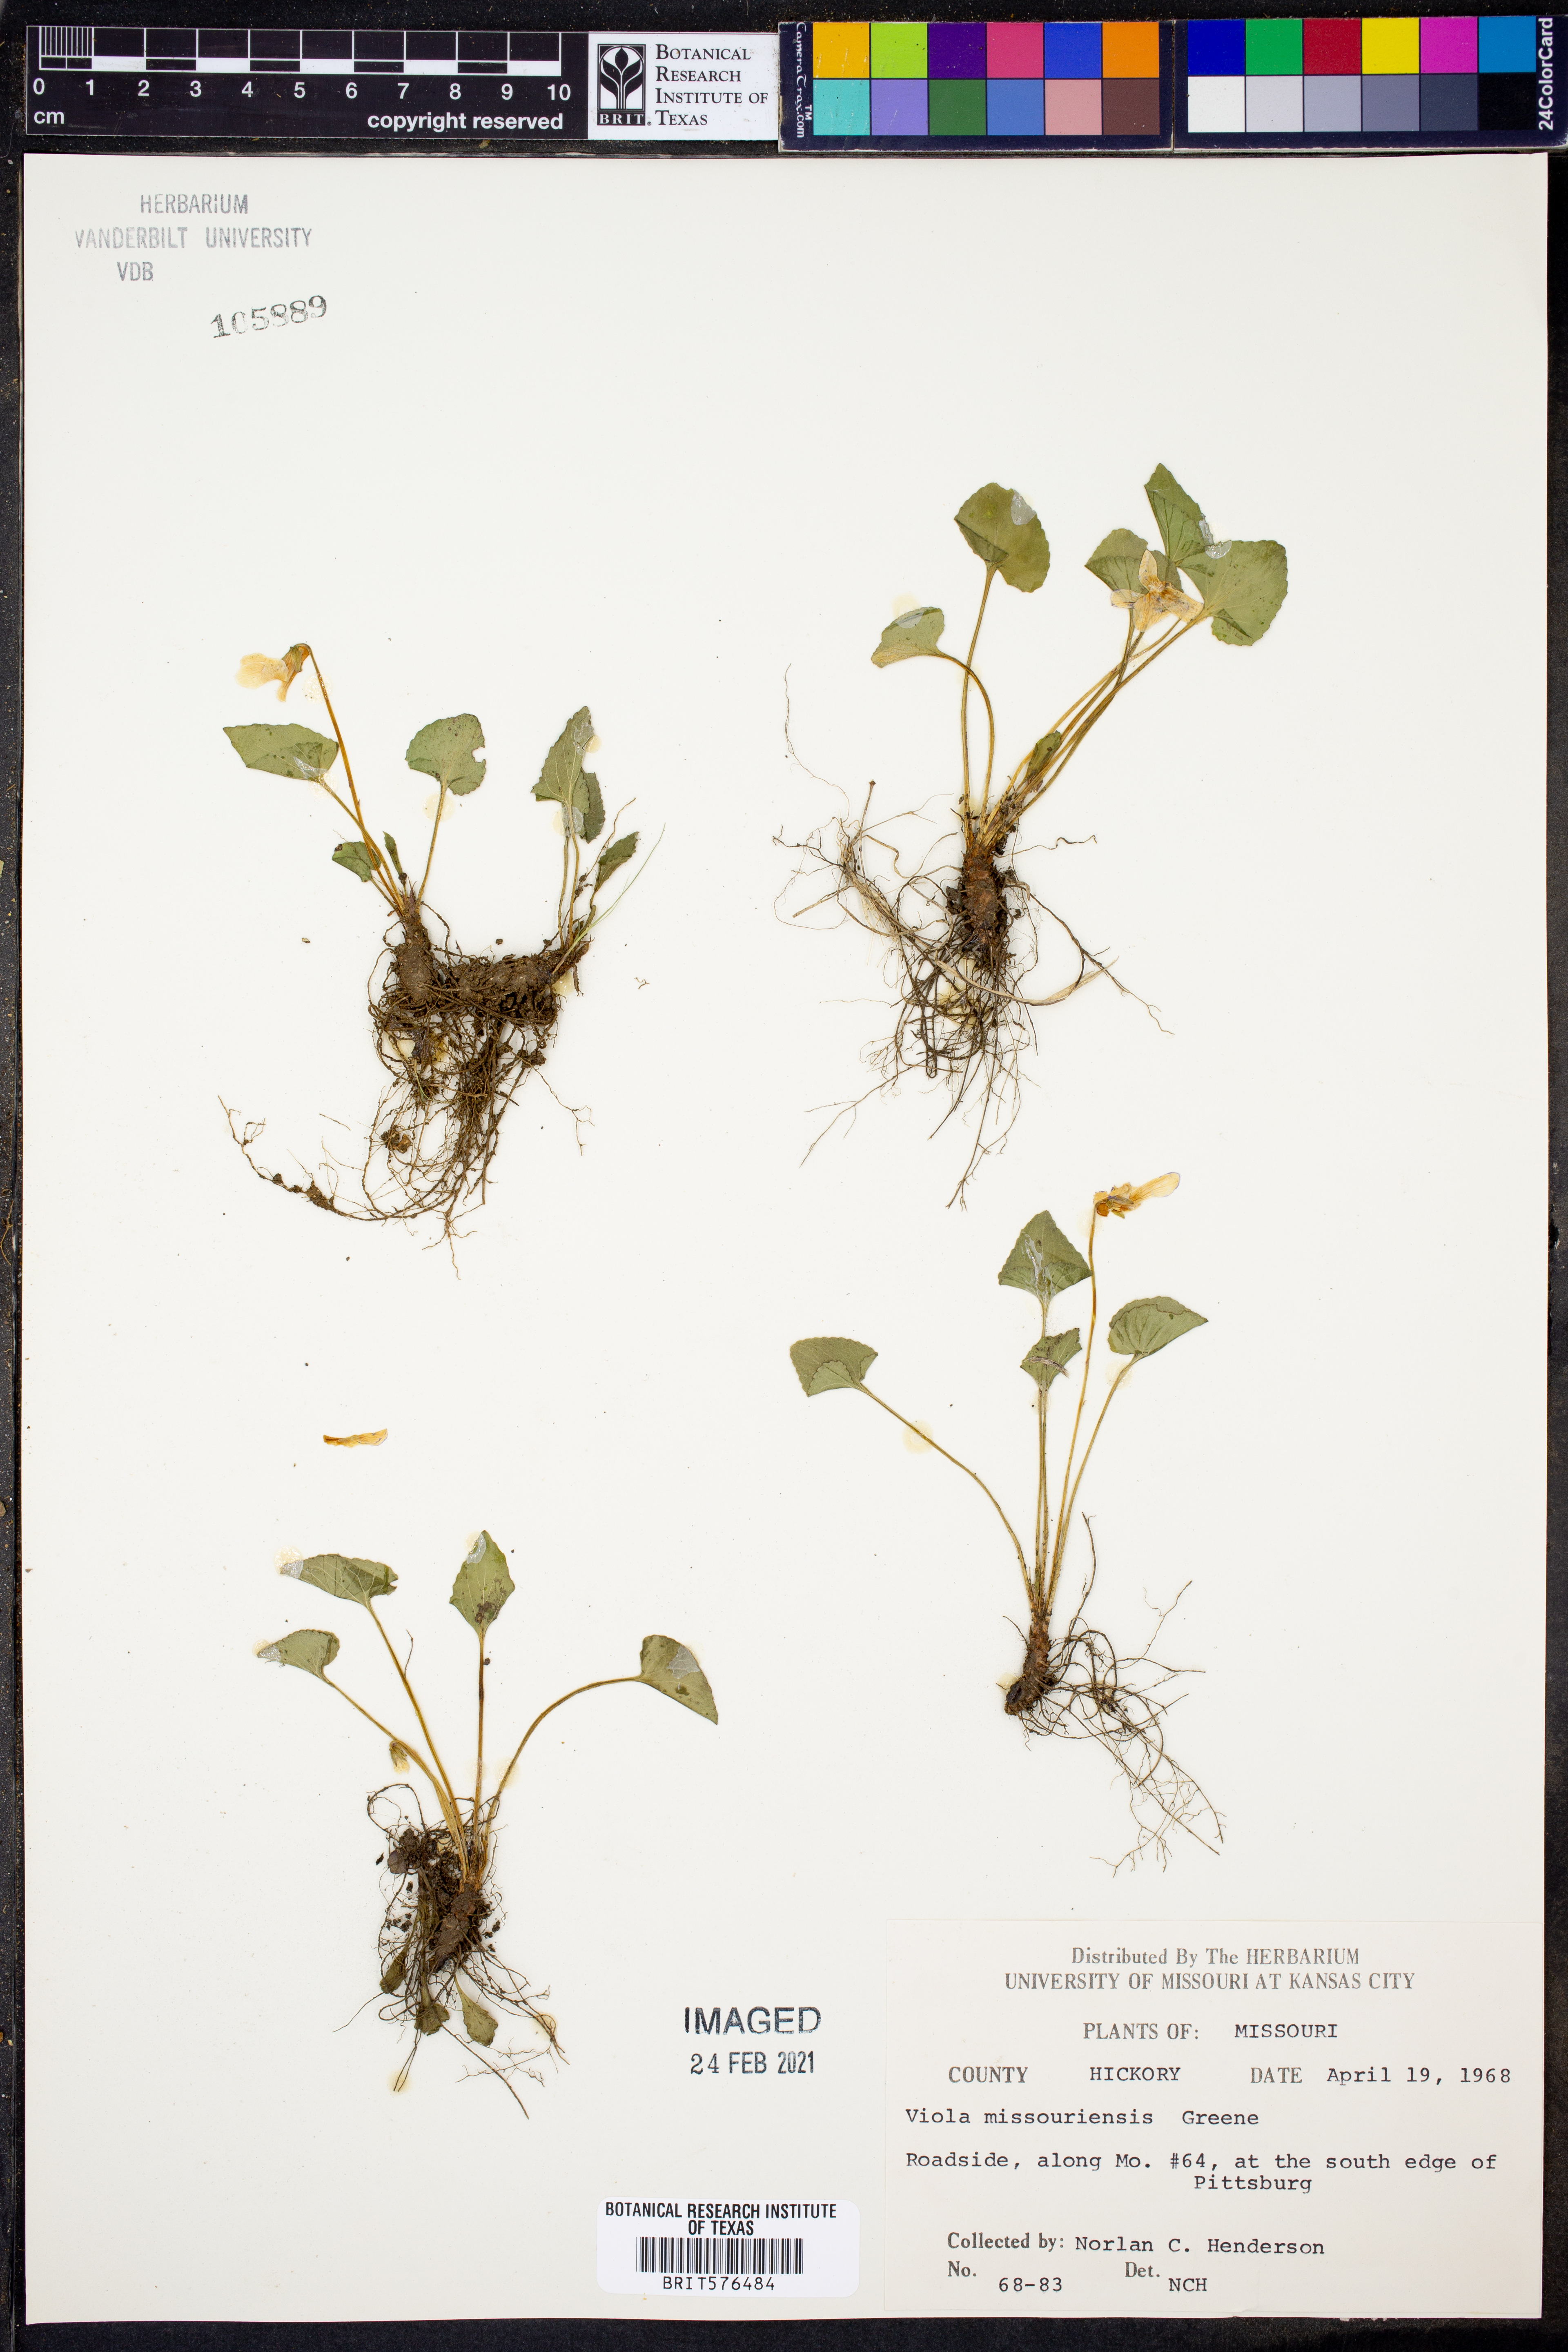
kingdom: Plantae
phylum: Tracheophyta
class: Magnoliopsida
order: Malpighiales
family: Violaceae
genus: Viola
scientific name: Viola missouriensis
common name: Missouri violet
